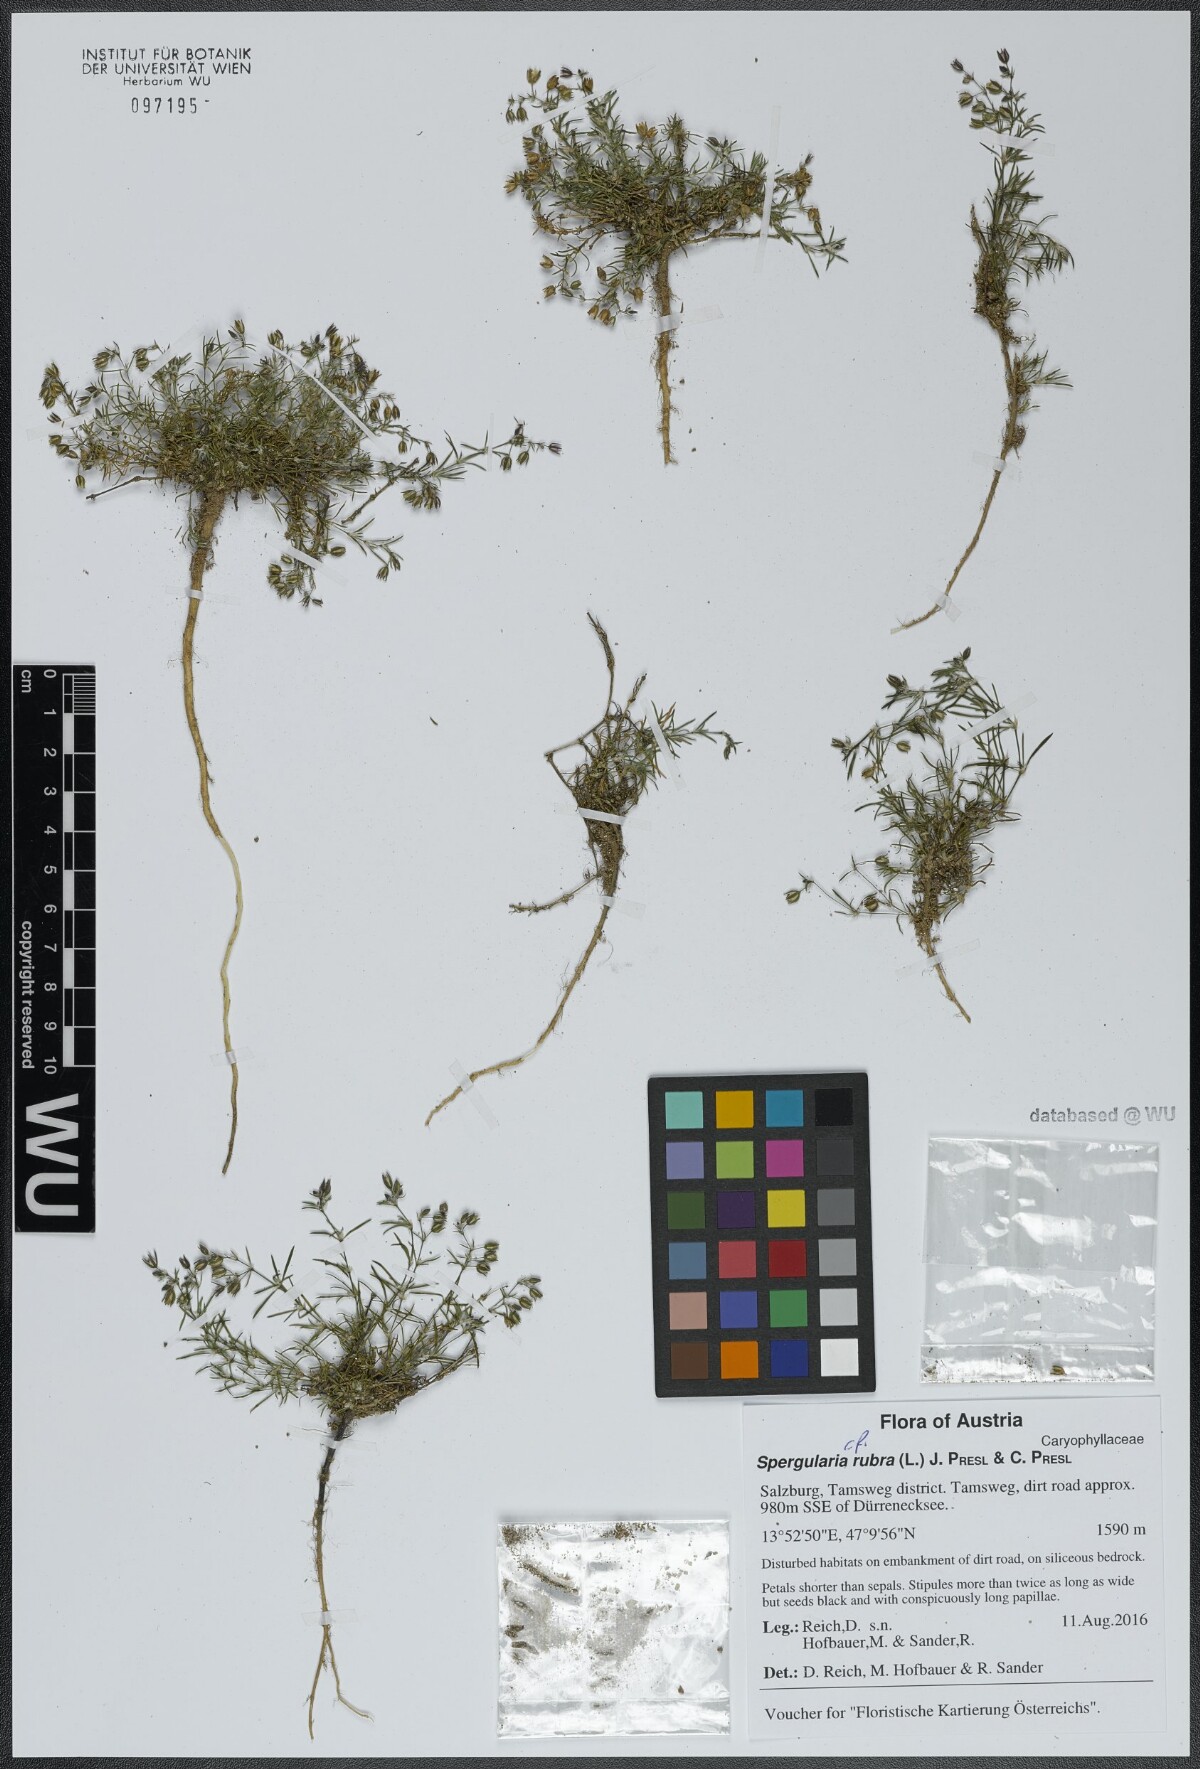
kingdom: Plantae
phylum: Tracheophyta
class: Magnoliopsida
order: Caryophyllales
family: Caryophyllaceae
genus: Spergularia
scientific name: Spergularia rubra
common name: Red sand-spurrey
